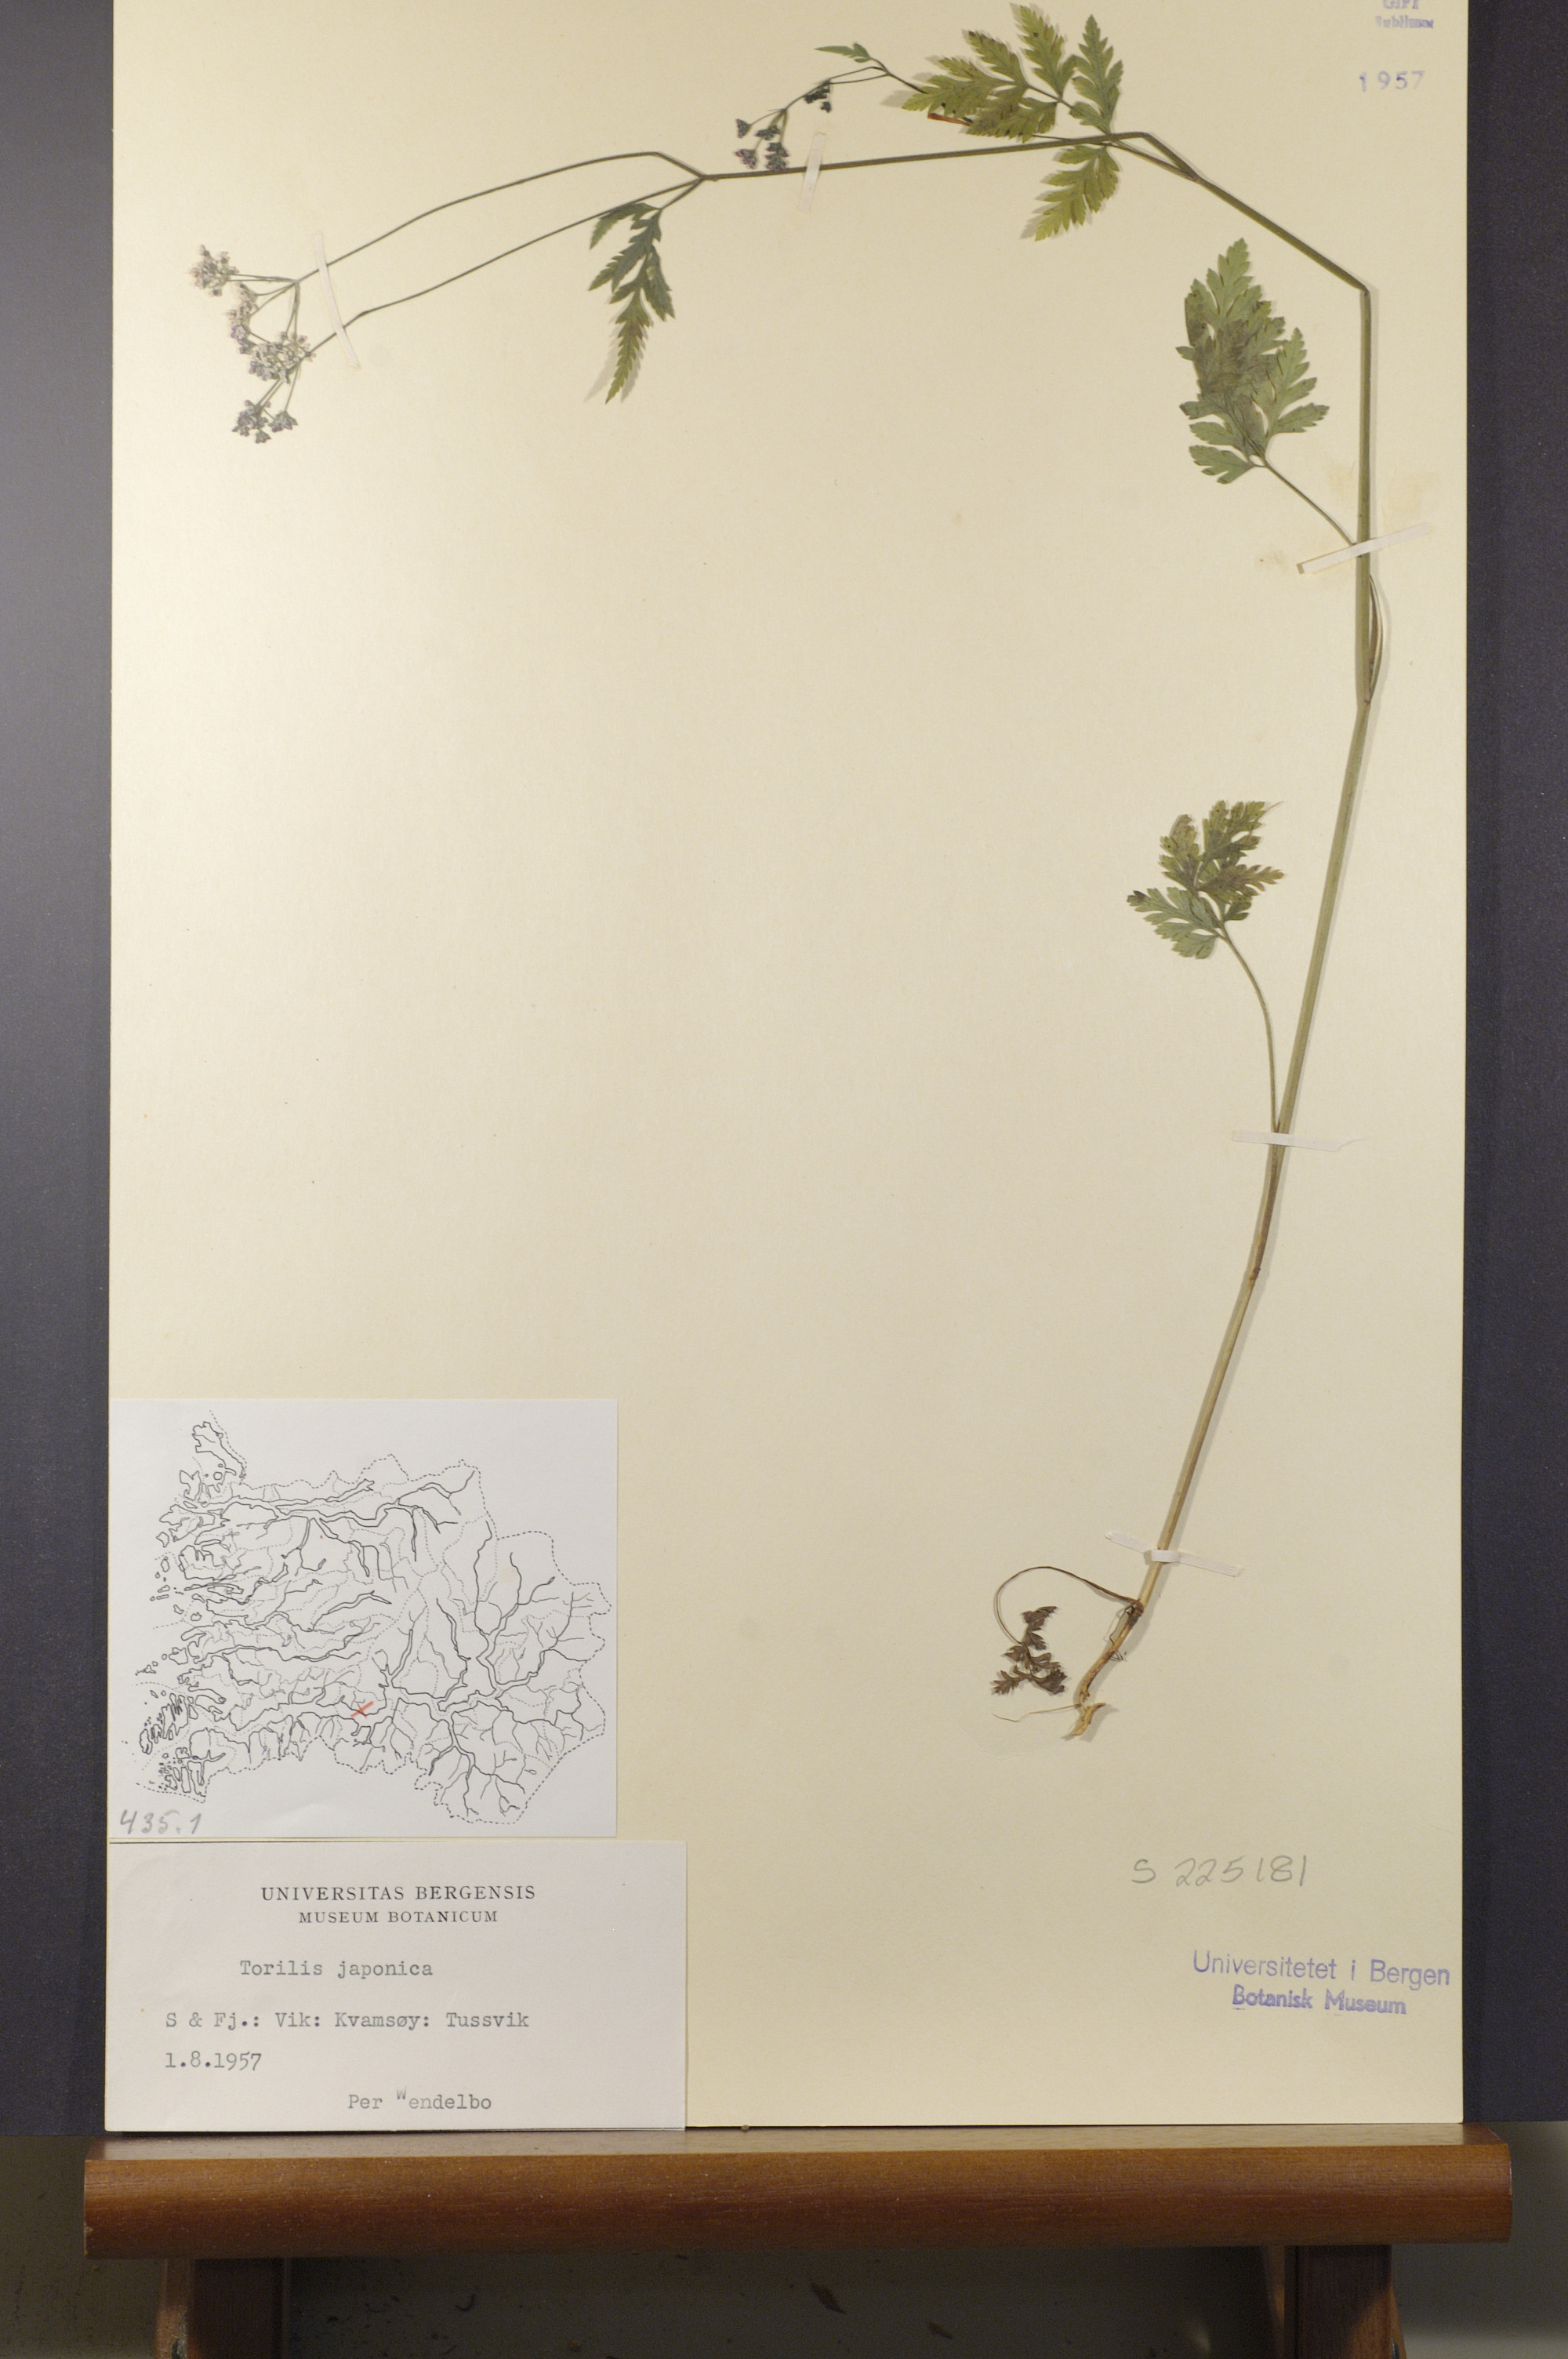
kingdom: Plantae
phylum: Tracheophyta
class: Magnoliopsida
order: Apiales
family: Apiaceae
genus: Torilis
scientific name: Torilis japonica
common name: Upright hedge-parsley
